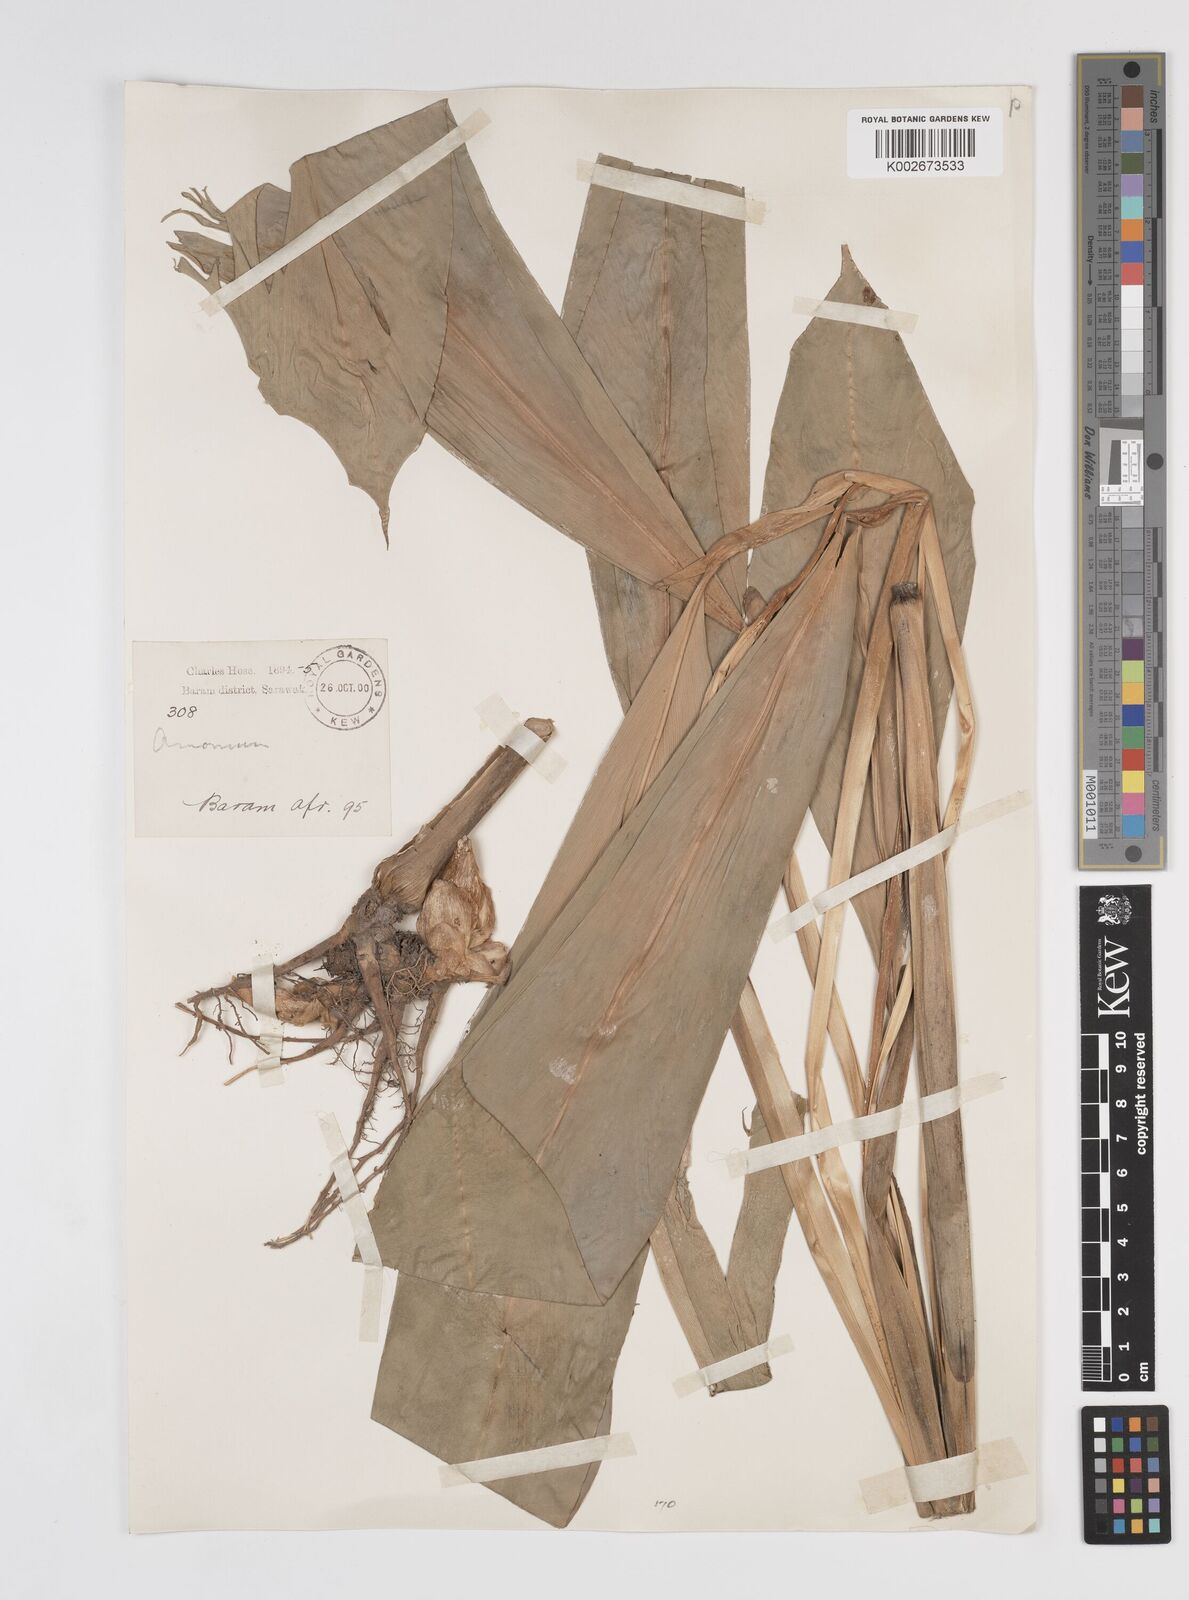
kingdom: Plantae
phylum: Tracheophyta
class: Liliopsida
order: Zingiberales
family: Zingiberaceae
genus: Amomum
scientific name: Amomum
